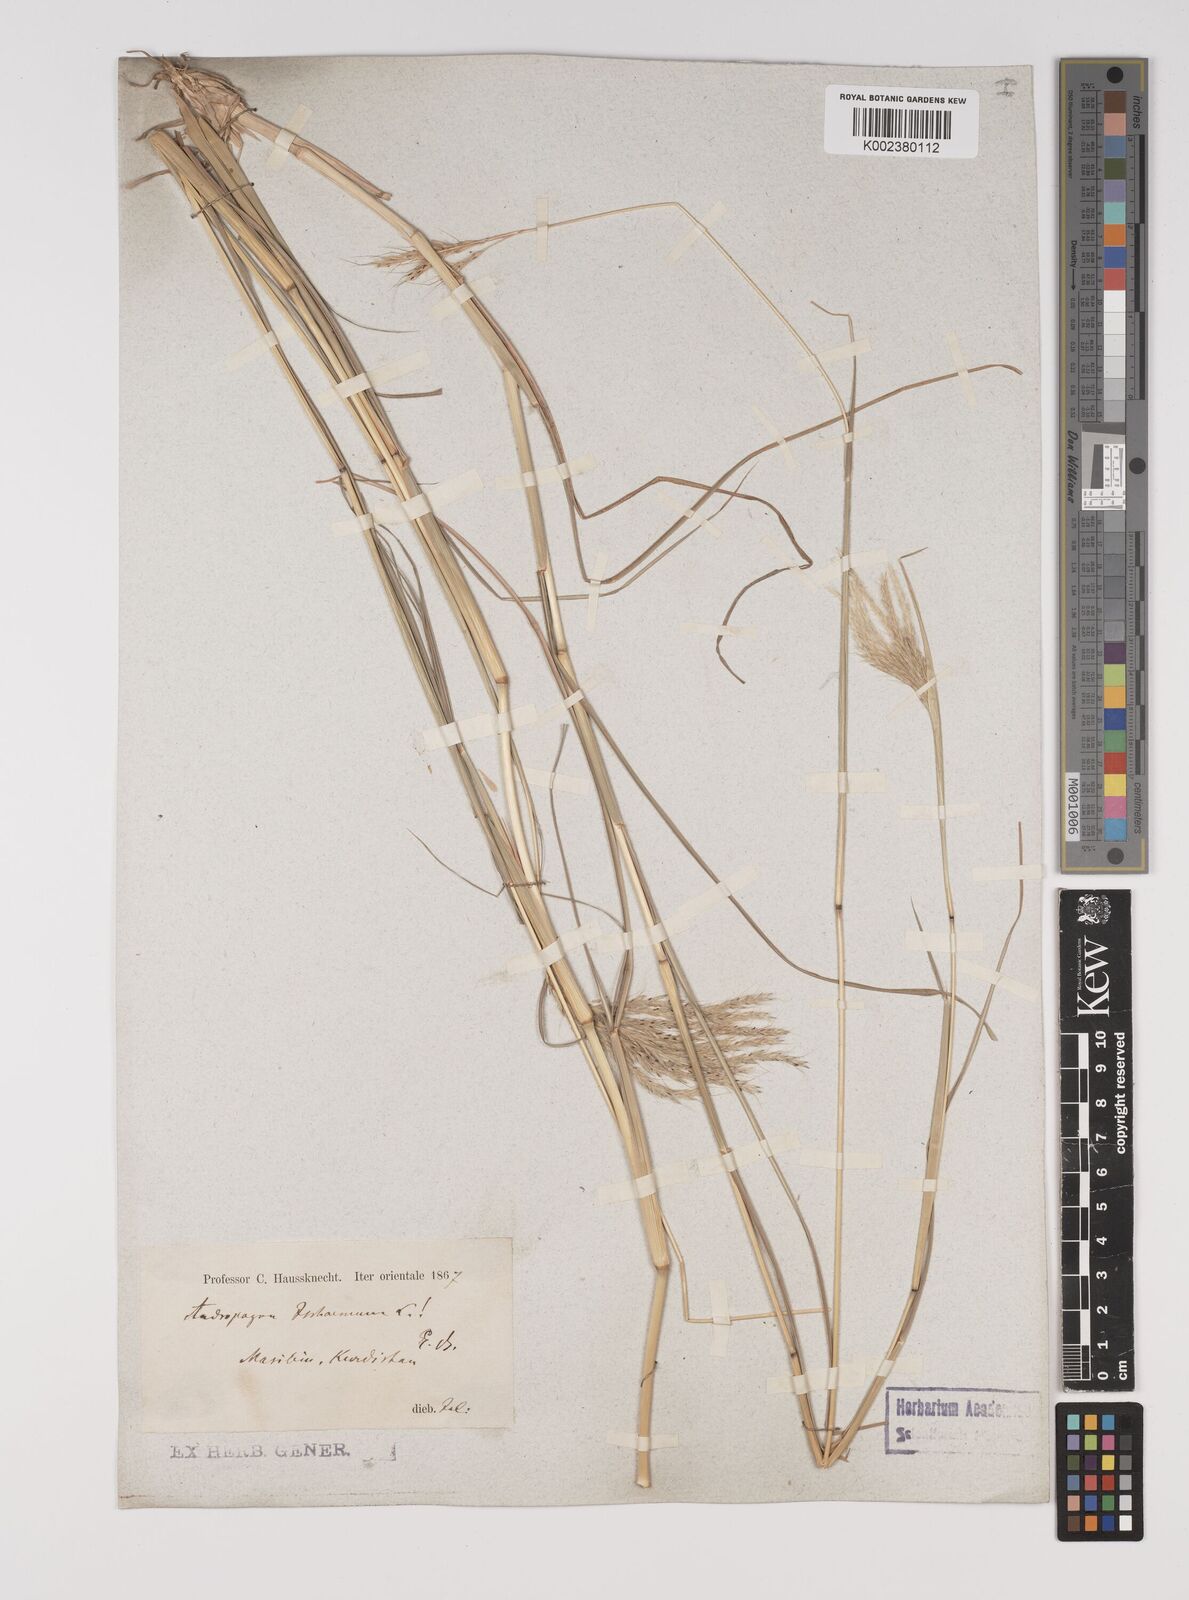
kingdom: Plantae
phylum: Tracheophyta
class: Liliopsida
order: Poales
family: Poaceae
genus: Bothriochloa
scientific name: Bothriochloa ischaemum
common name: Yellow bluestem
